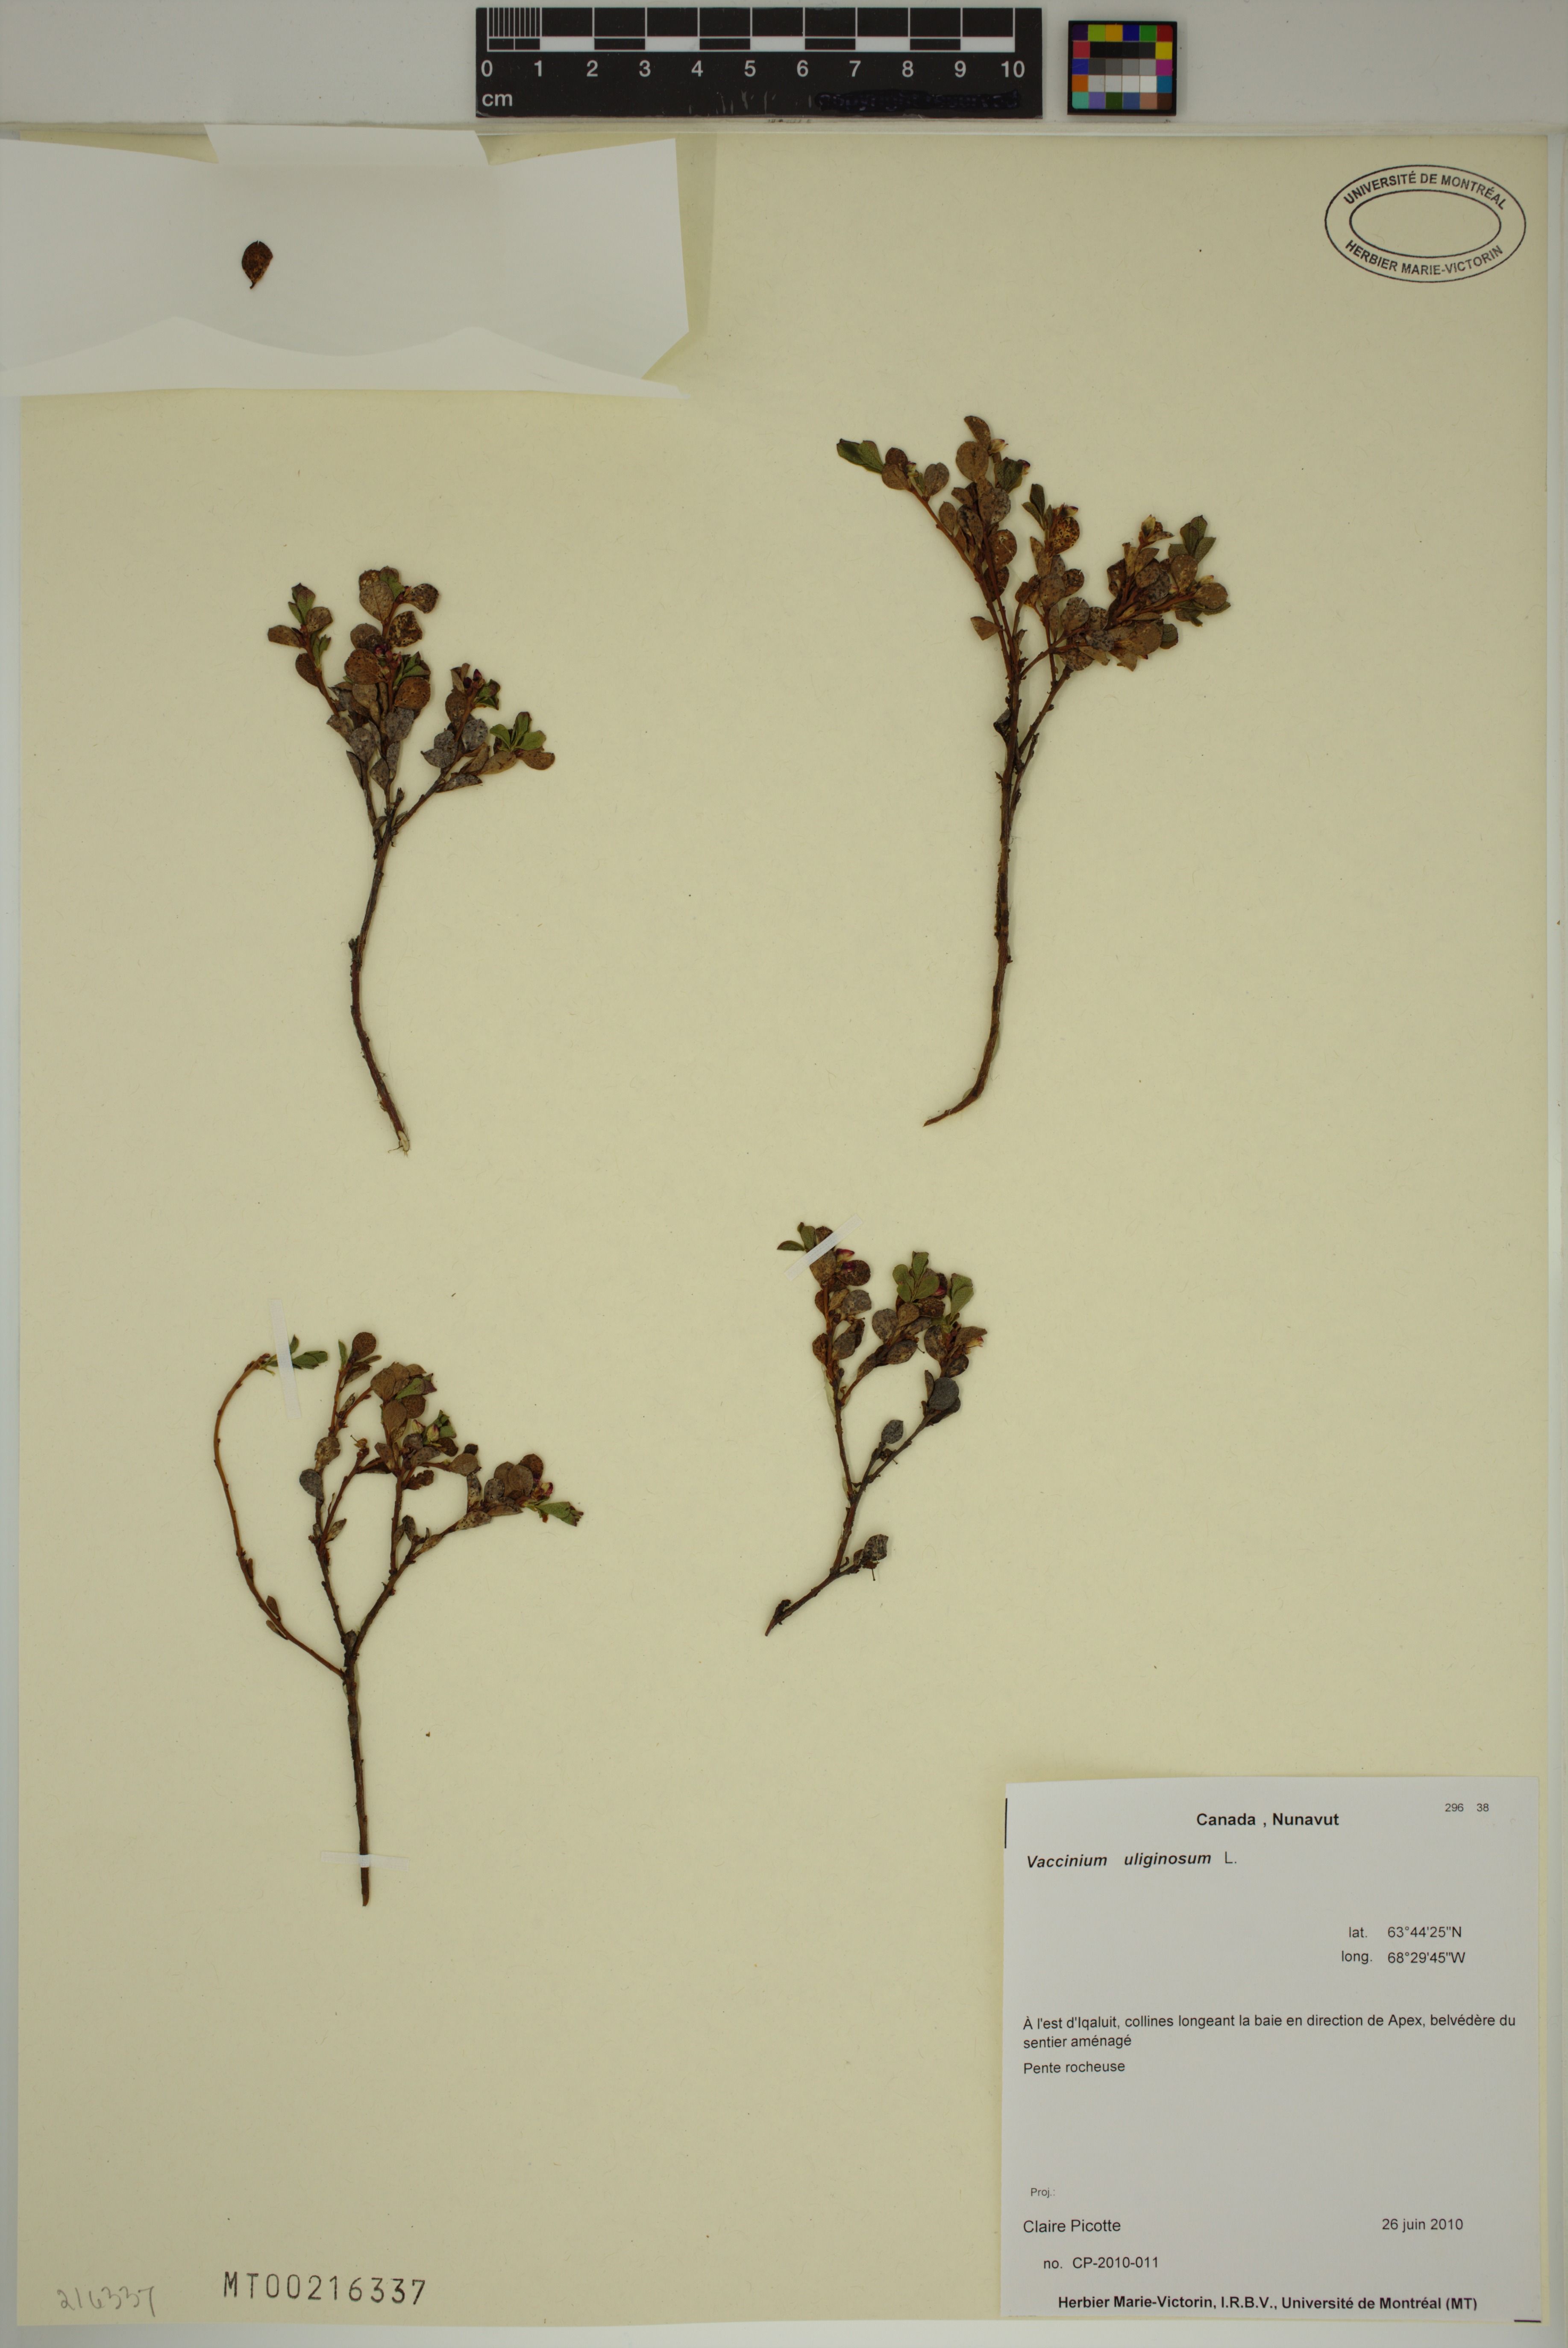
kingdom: Plantae
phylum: Tracheophyta
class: Magnoliopsida
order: Ericales
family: Ericaceae
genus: Vaccinium
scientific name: Vaccinium uliginosum
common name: Bog bilberry
